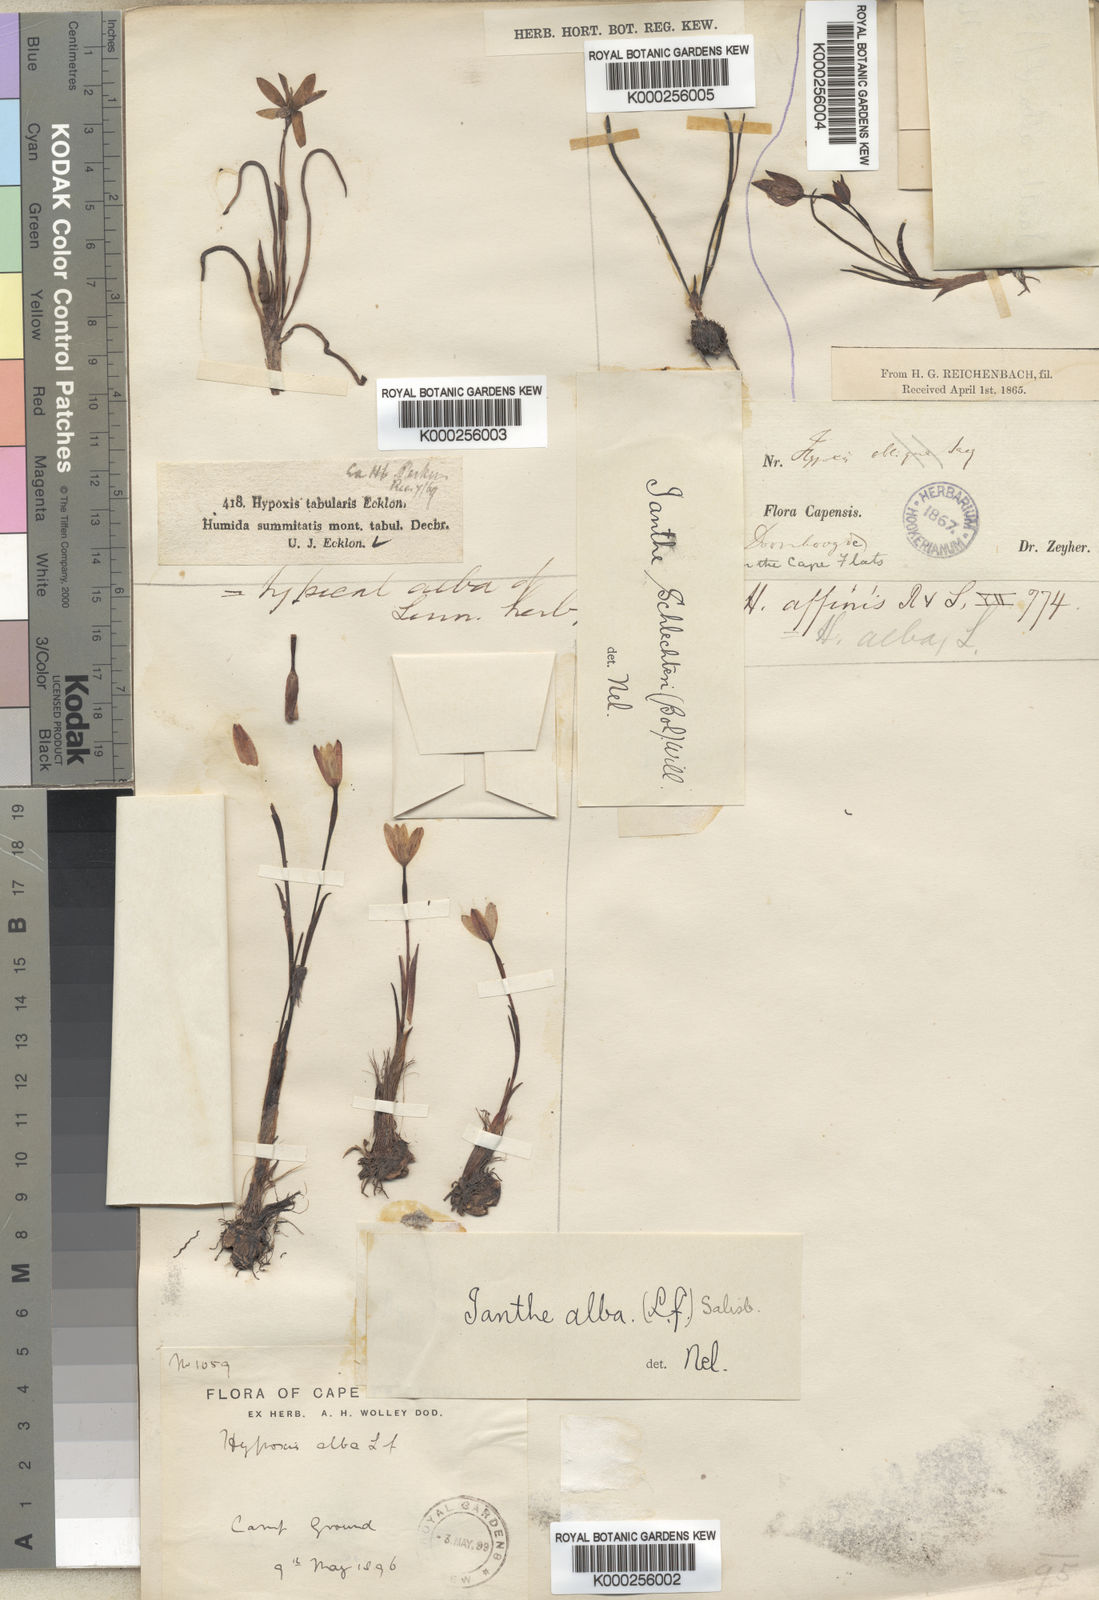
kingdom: Plantae
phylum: Tracheophyta
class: Liliopsida
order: Asparagales
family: Hypoxidaceae
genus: Pauridia
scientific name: Pauridia alba
